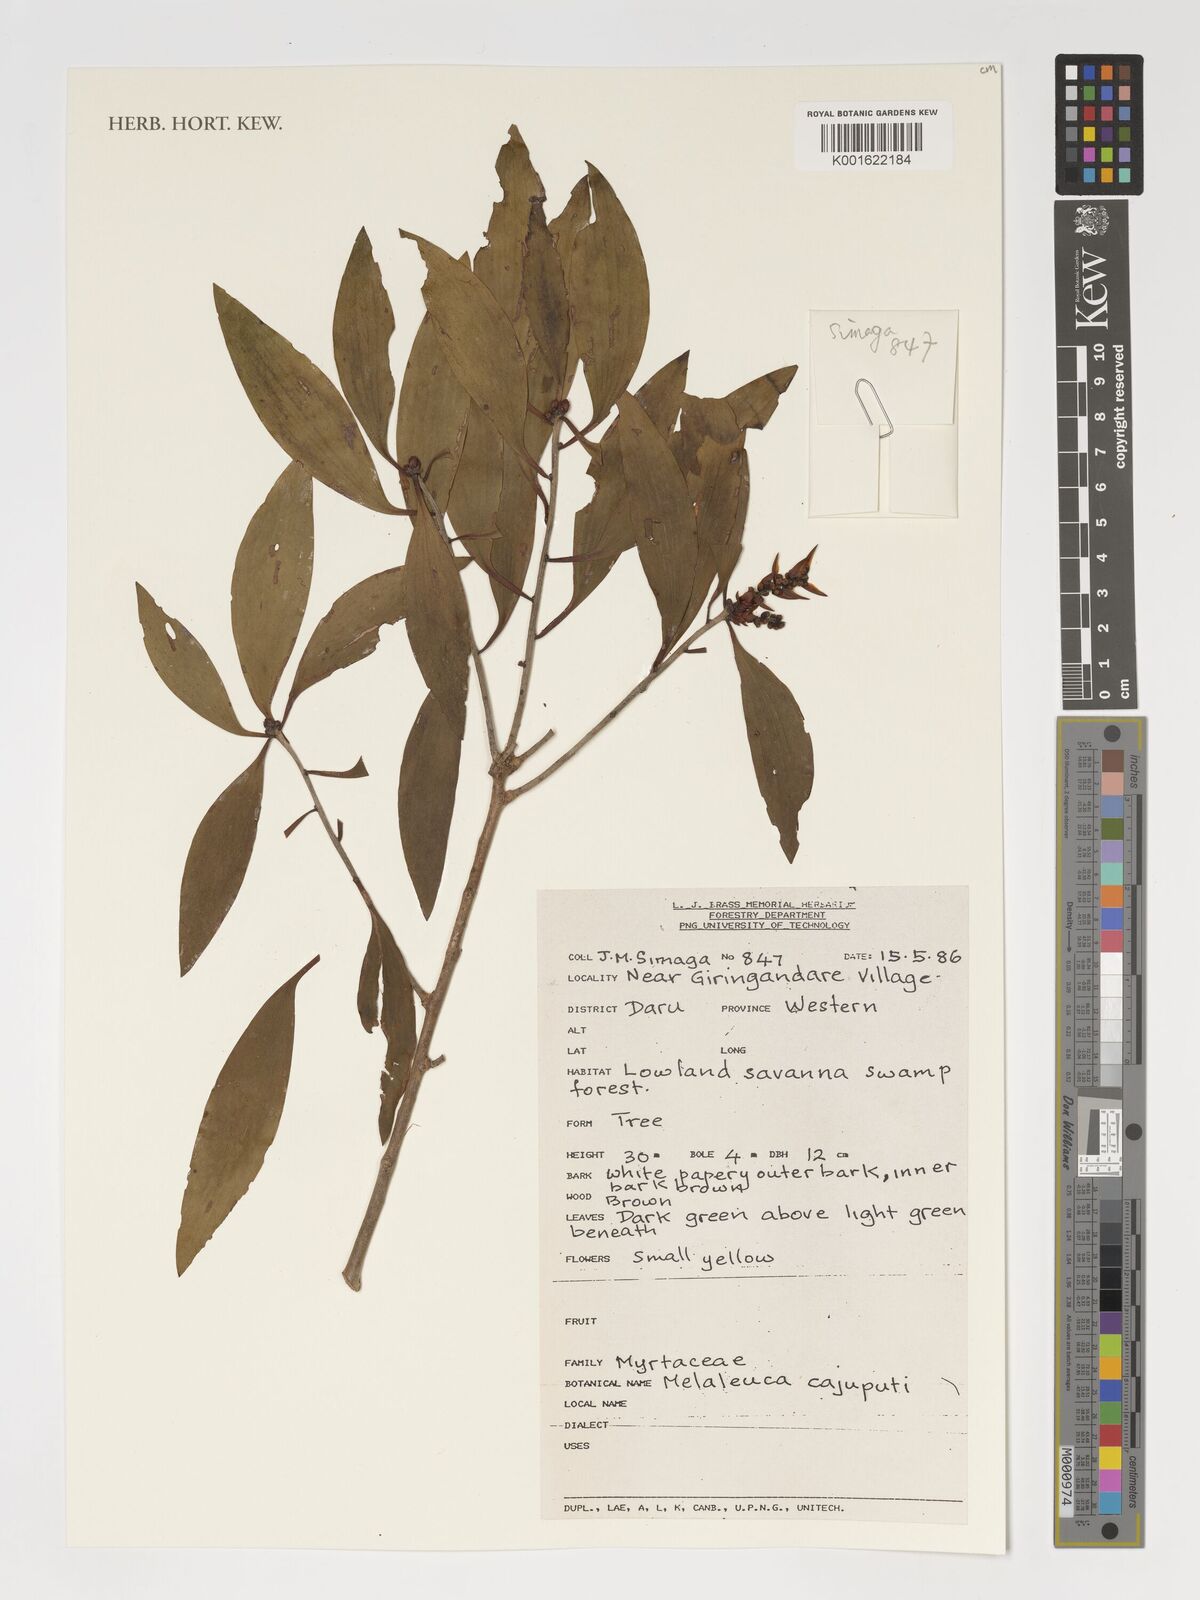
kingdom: Plantae
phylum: Tracheophyta
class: Magnoliopsida
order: Myrtales
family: Myrtaceae
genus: Melaleuca
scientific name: Melaleuca cajuputi
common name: Cajuput
